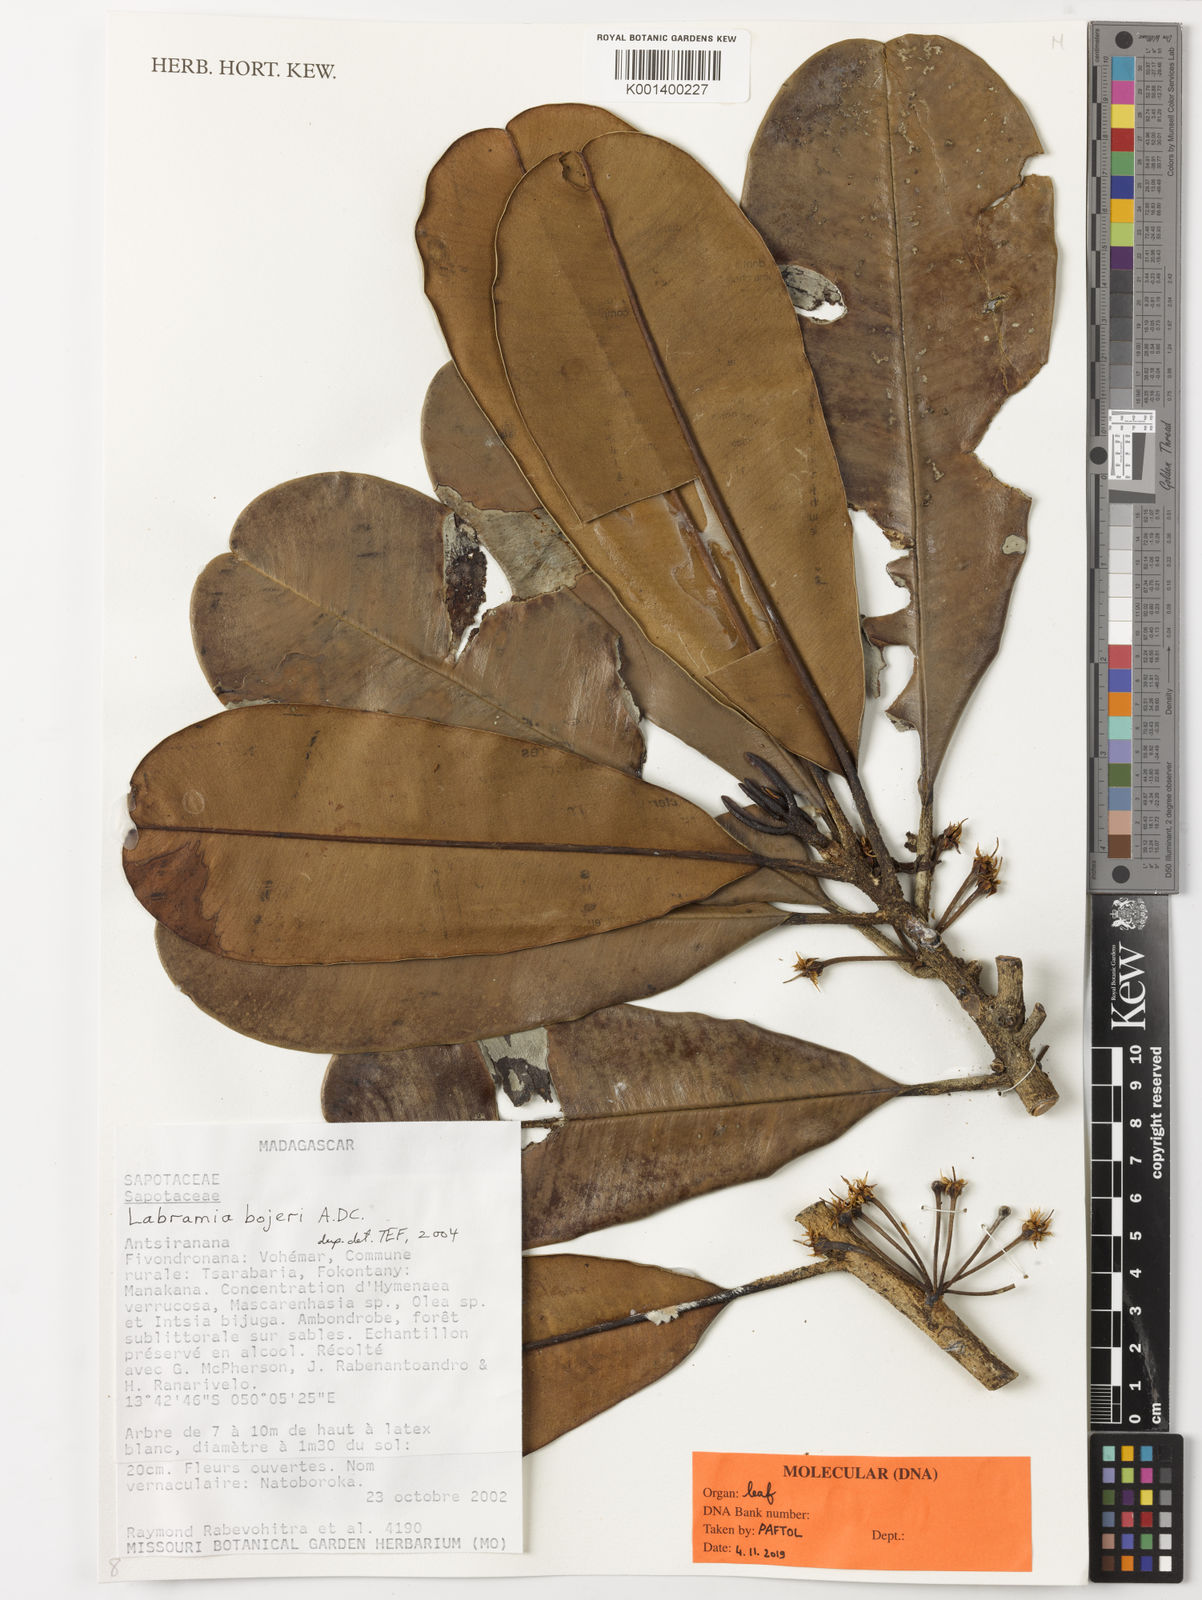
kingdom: Plantae
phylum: Tracheophyta
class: Magnoliopsida
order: Ericales
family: Sapotaceae
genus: Labramia
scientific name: Labramia bojeri
